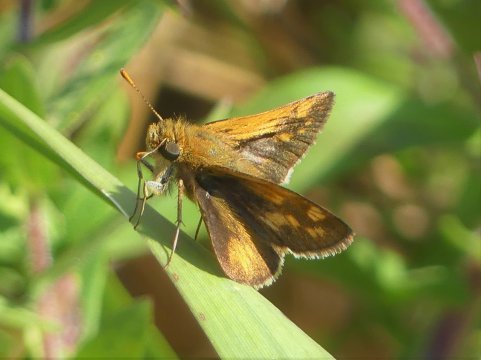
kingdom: Animalia
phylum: Arthropoda
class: Insecta
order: Lepidoptera
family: Hesperiidae
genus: Polites
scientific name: Polites coras
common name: Peck's Skipper
